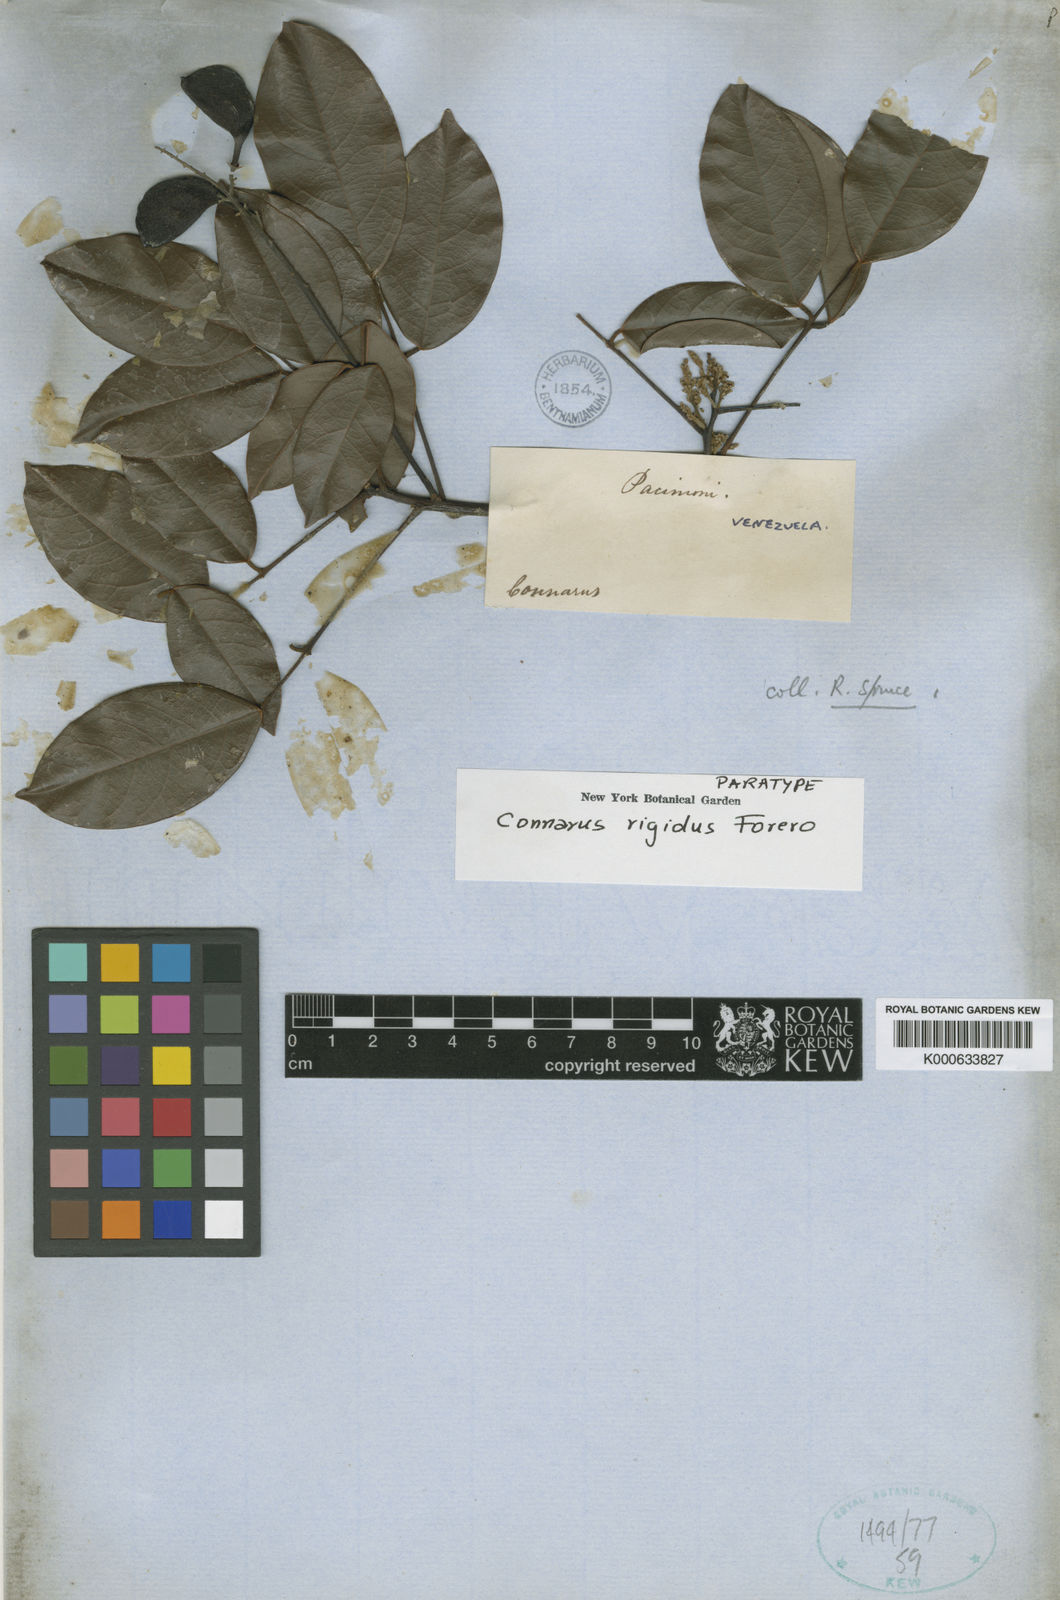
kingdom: Plantae
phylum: Tracheophyta
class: Magnoliopsida
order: Oxalidales
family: Connaraceae
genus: Connarus
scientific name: Connarus rigidus
